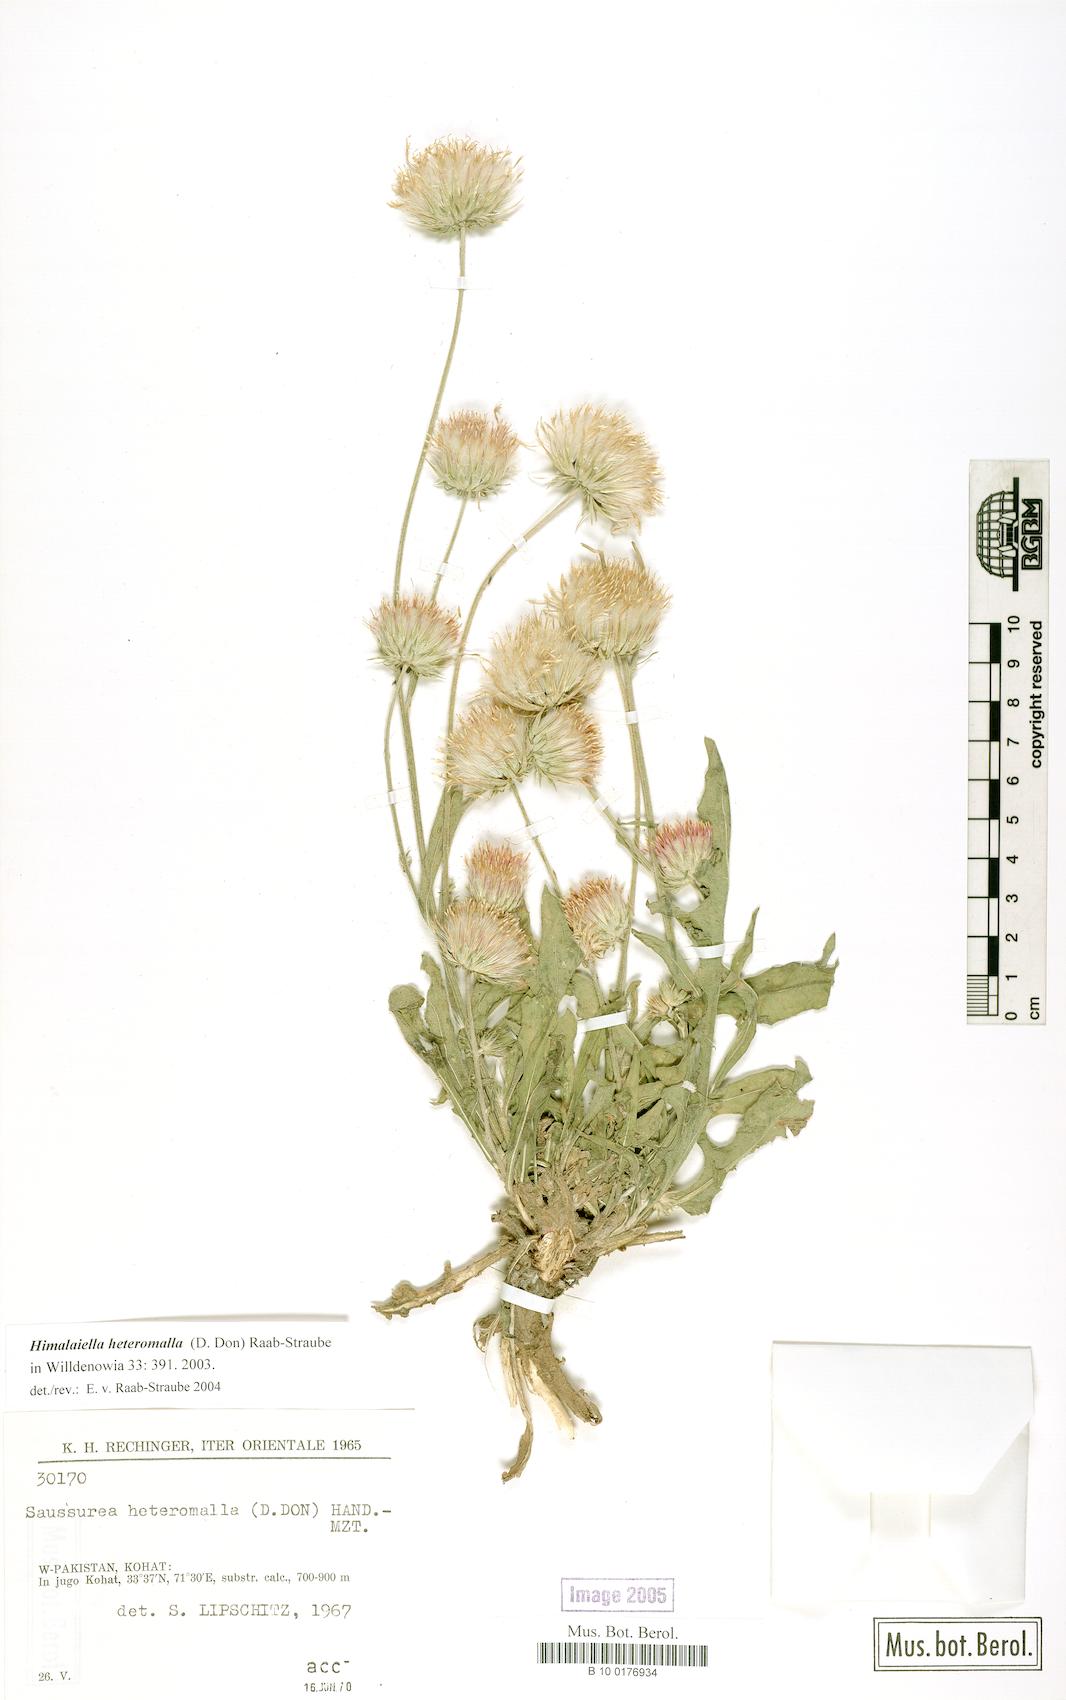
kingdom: Plantae
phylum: Tracheophyta
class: Magnoliopsida
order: Asterales
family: Asteraceae
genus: Jurinea
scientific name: Jurinea heteromalla
